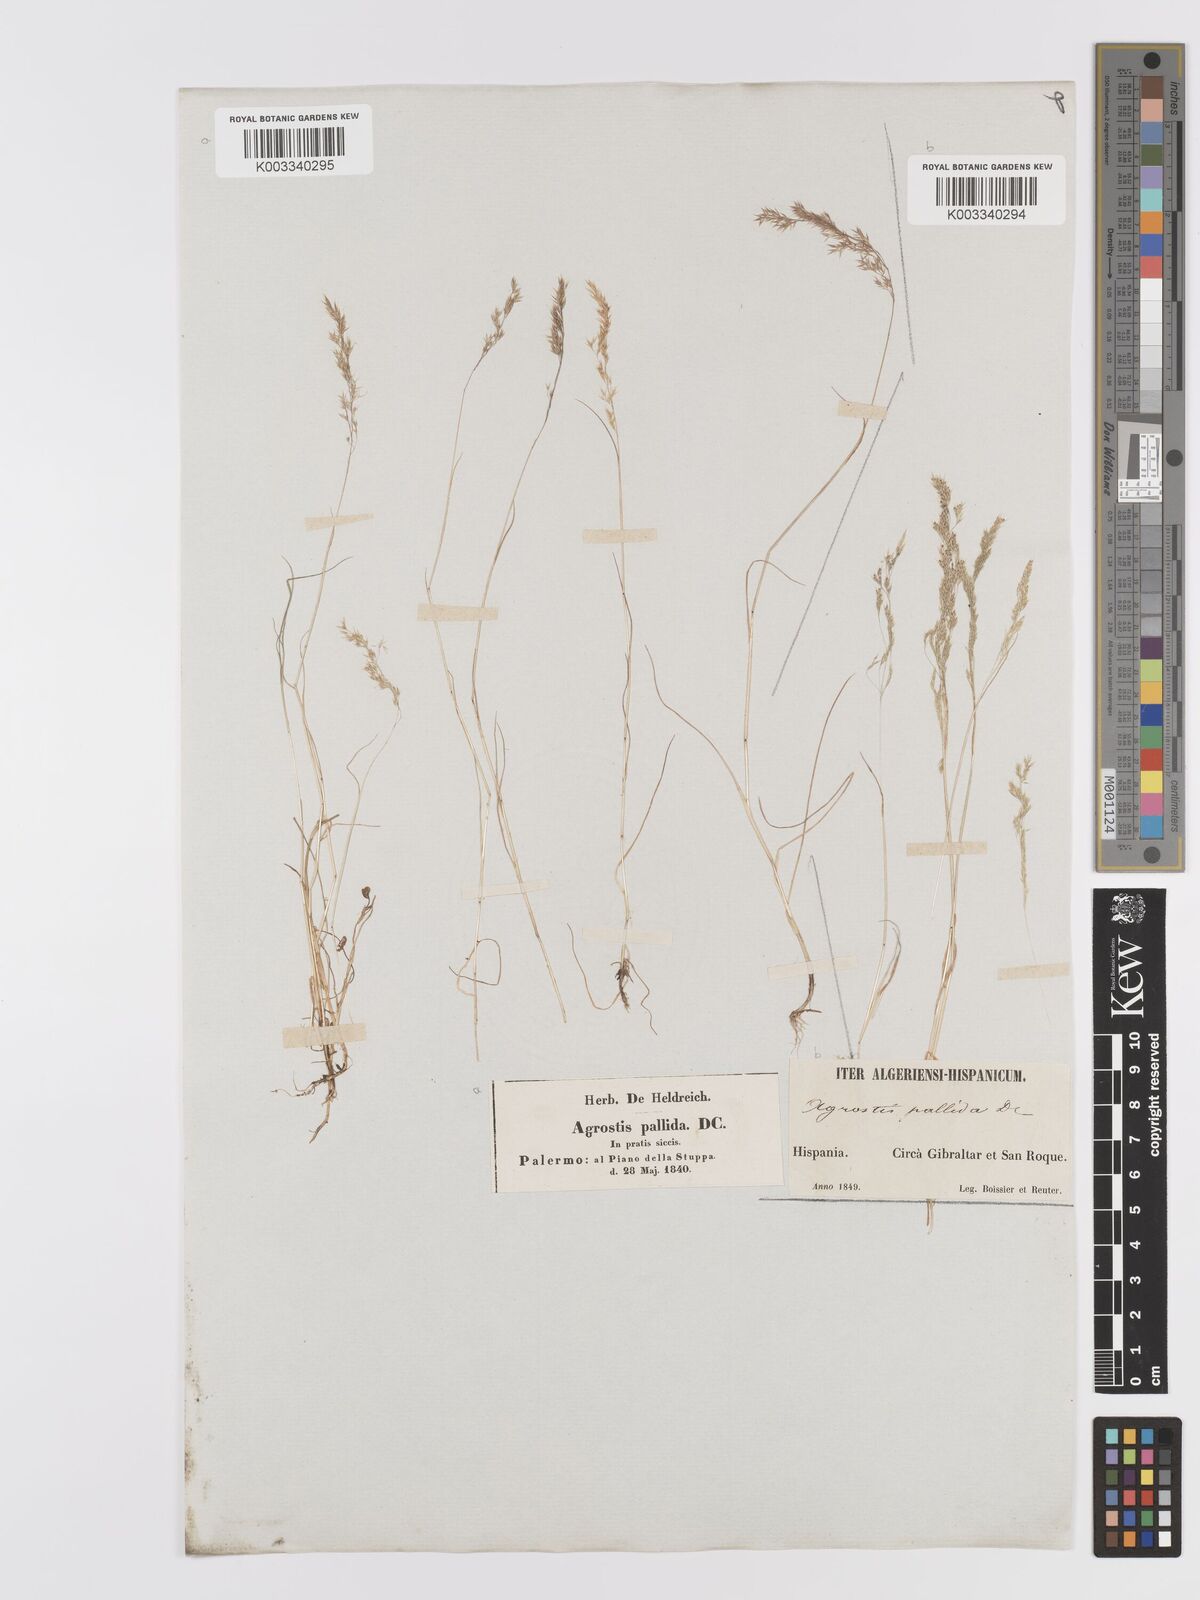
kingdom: Plantae
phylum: Tracheophyta
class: Liliopsida
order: Poales
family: Poaceae
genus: Agrostis
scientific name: Agrostis pourretii
